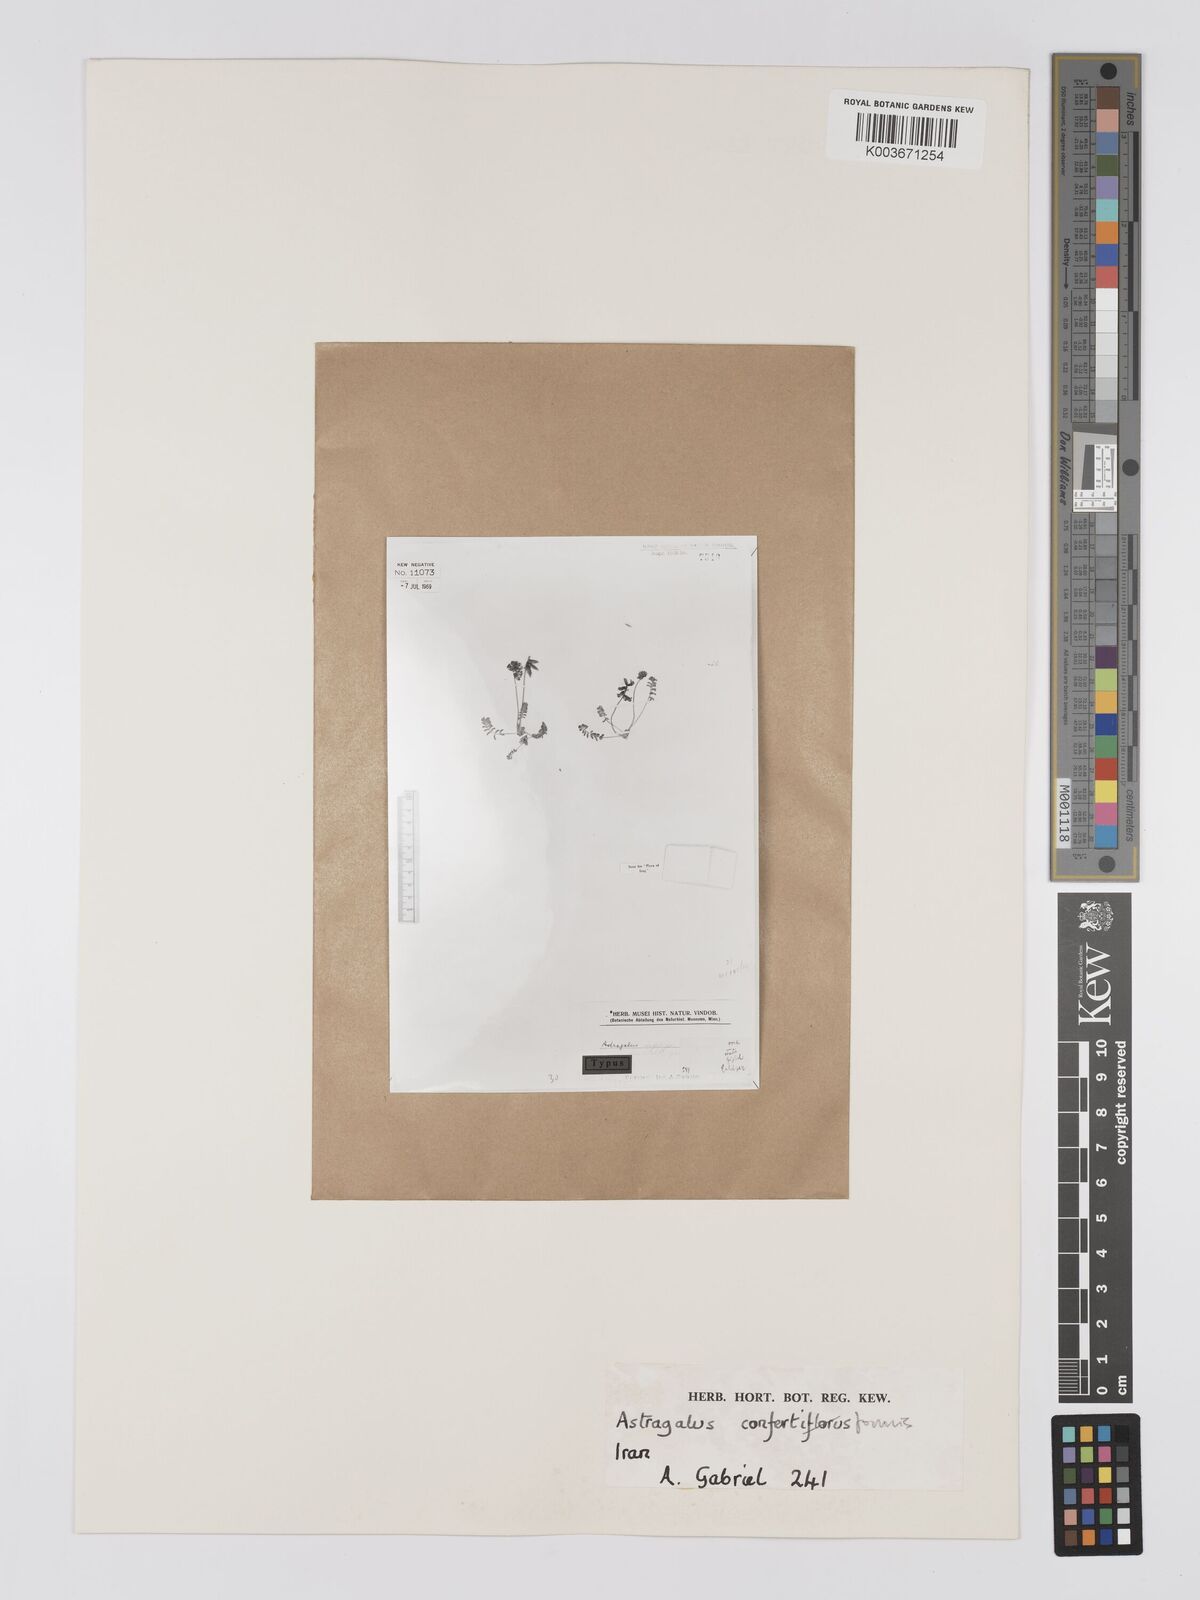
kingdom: Plantae
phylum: Tracheophyta
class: Magnoliopsida
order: Fabales
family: Fabaceae
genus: Astragalus
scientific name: Astragalus confertiformis
